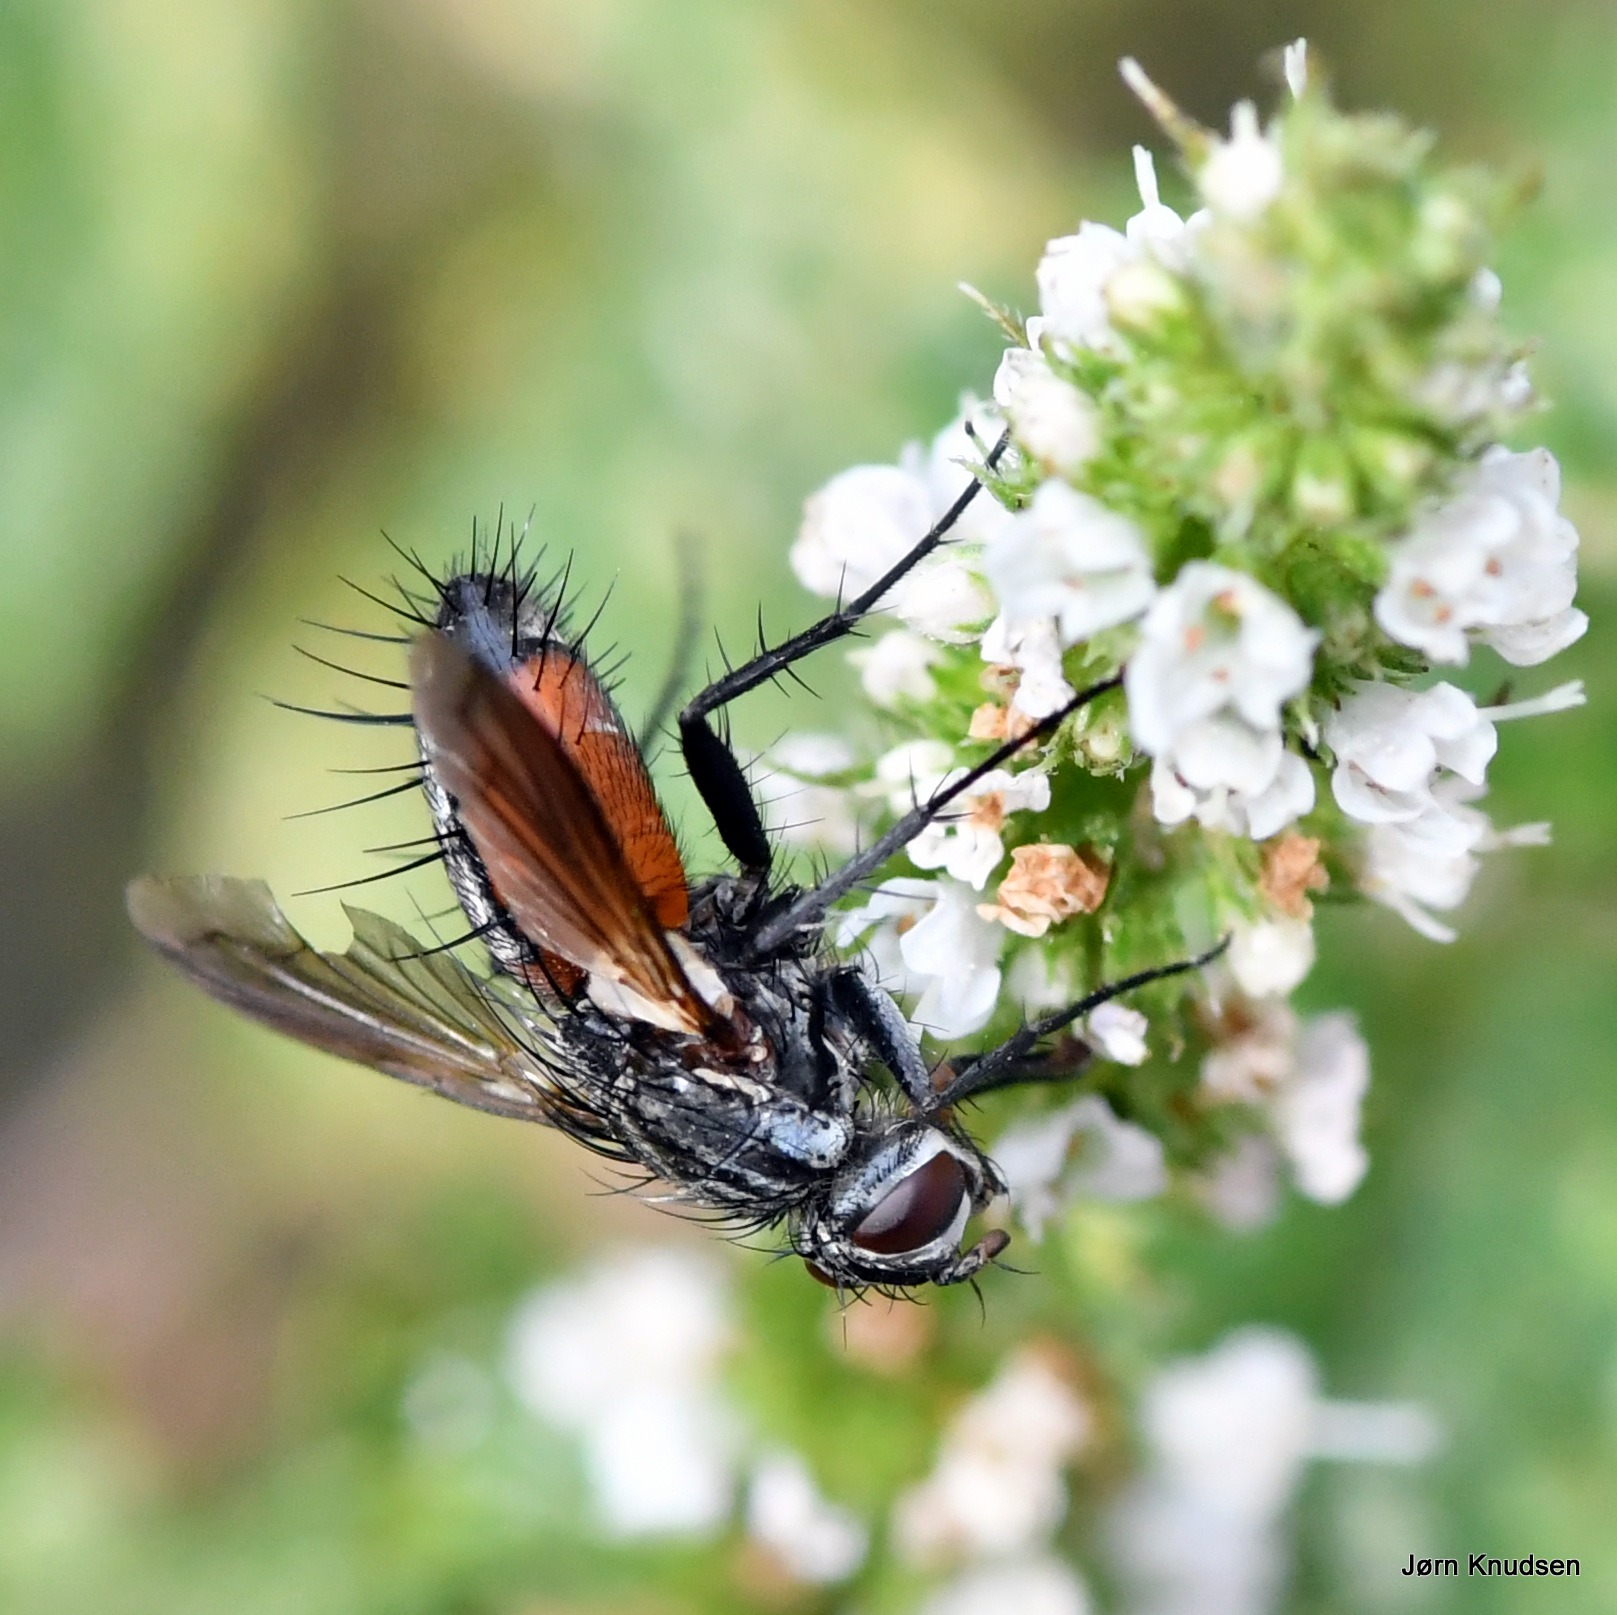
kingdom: Animalia
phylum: Arthropoda
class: Insecta
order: Diptera
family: Tachinidae
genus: Eriothrix
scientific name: Eriothrix rufomaculatus
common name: Rød snylteflue
